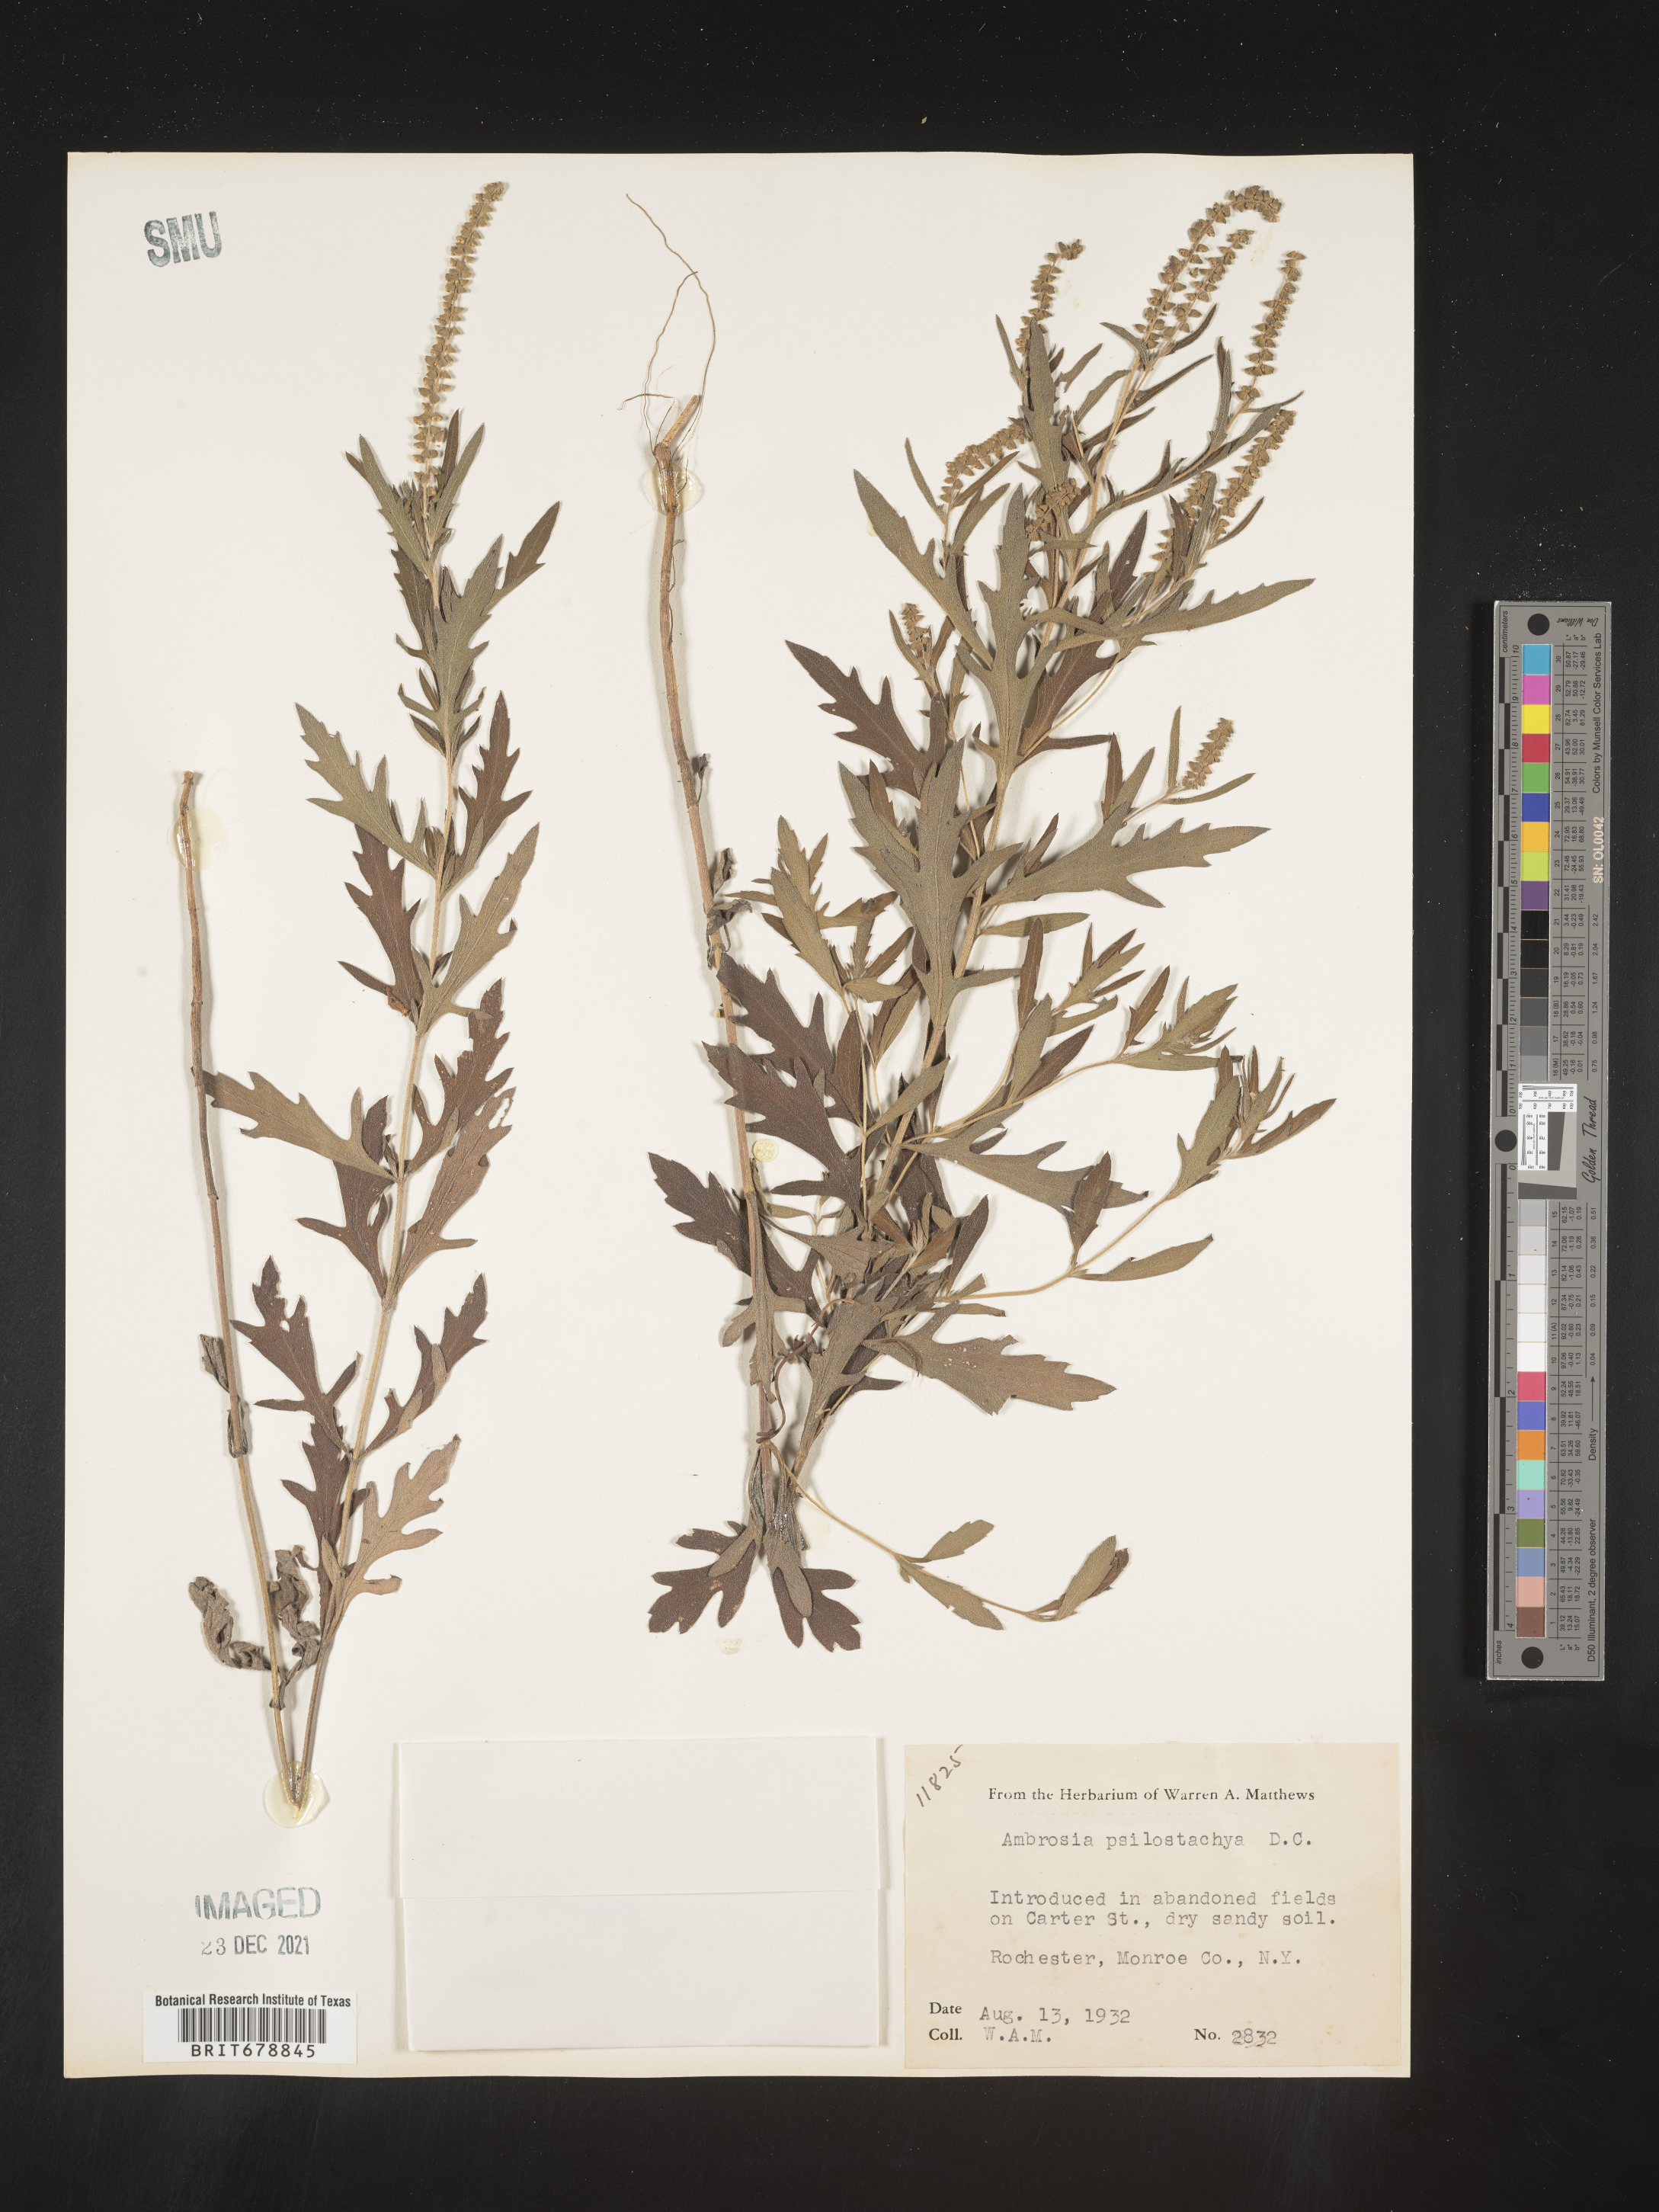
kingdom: Plantae
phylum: Tracheophyta
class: Magnoliopsida
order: Asterales
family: Asteraceae
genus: Ambrosia
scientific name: Ambrosia psilostachya
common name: Perennial ragweed
